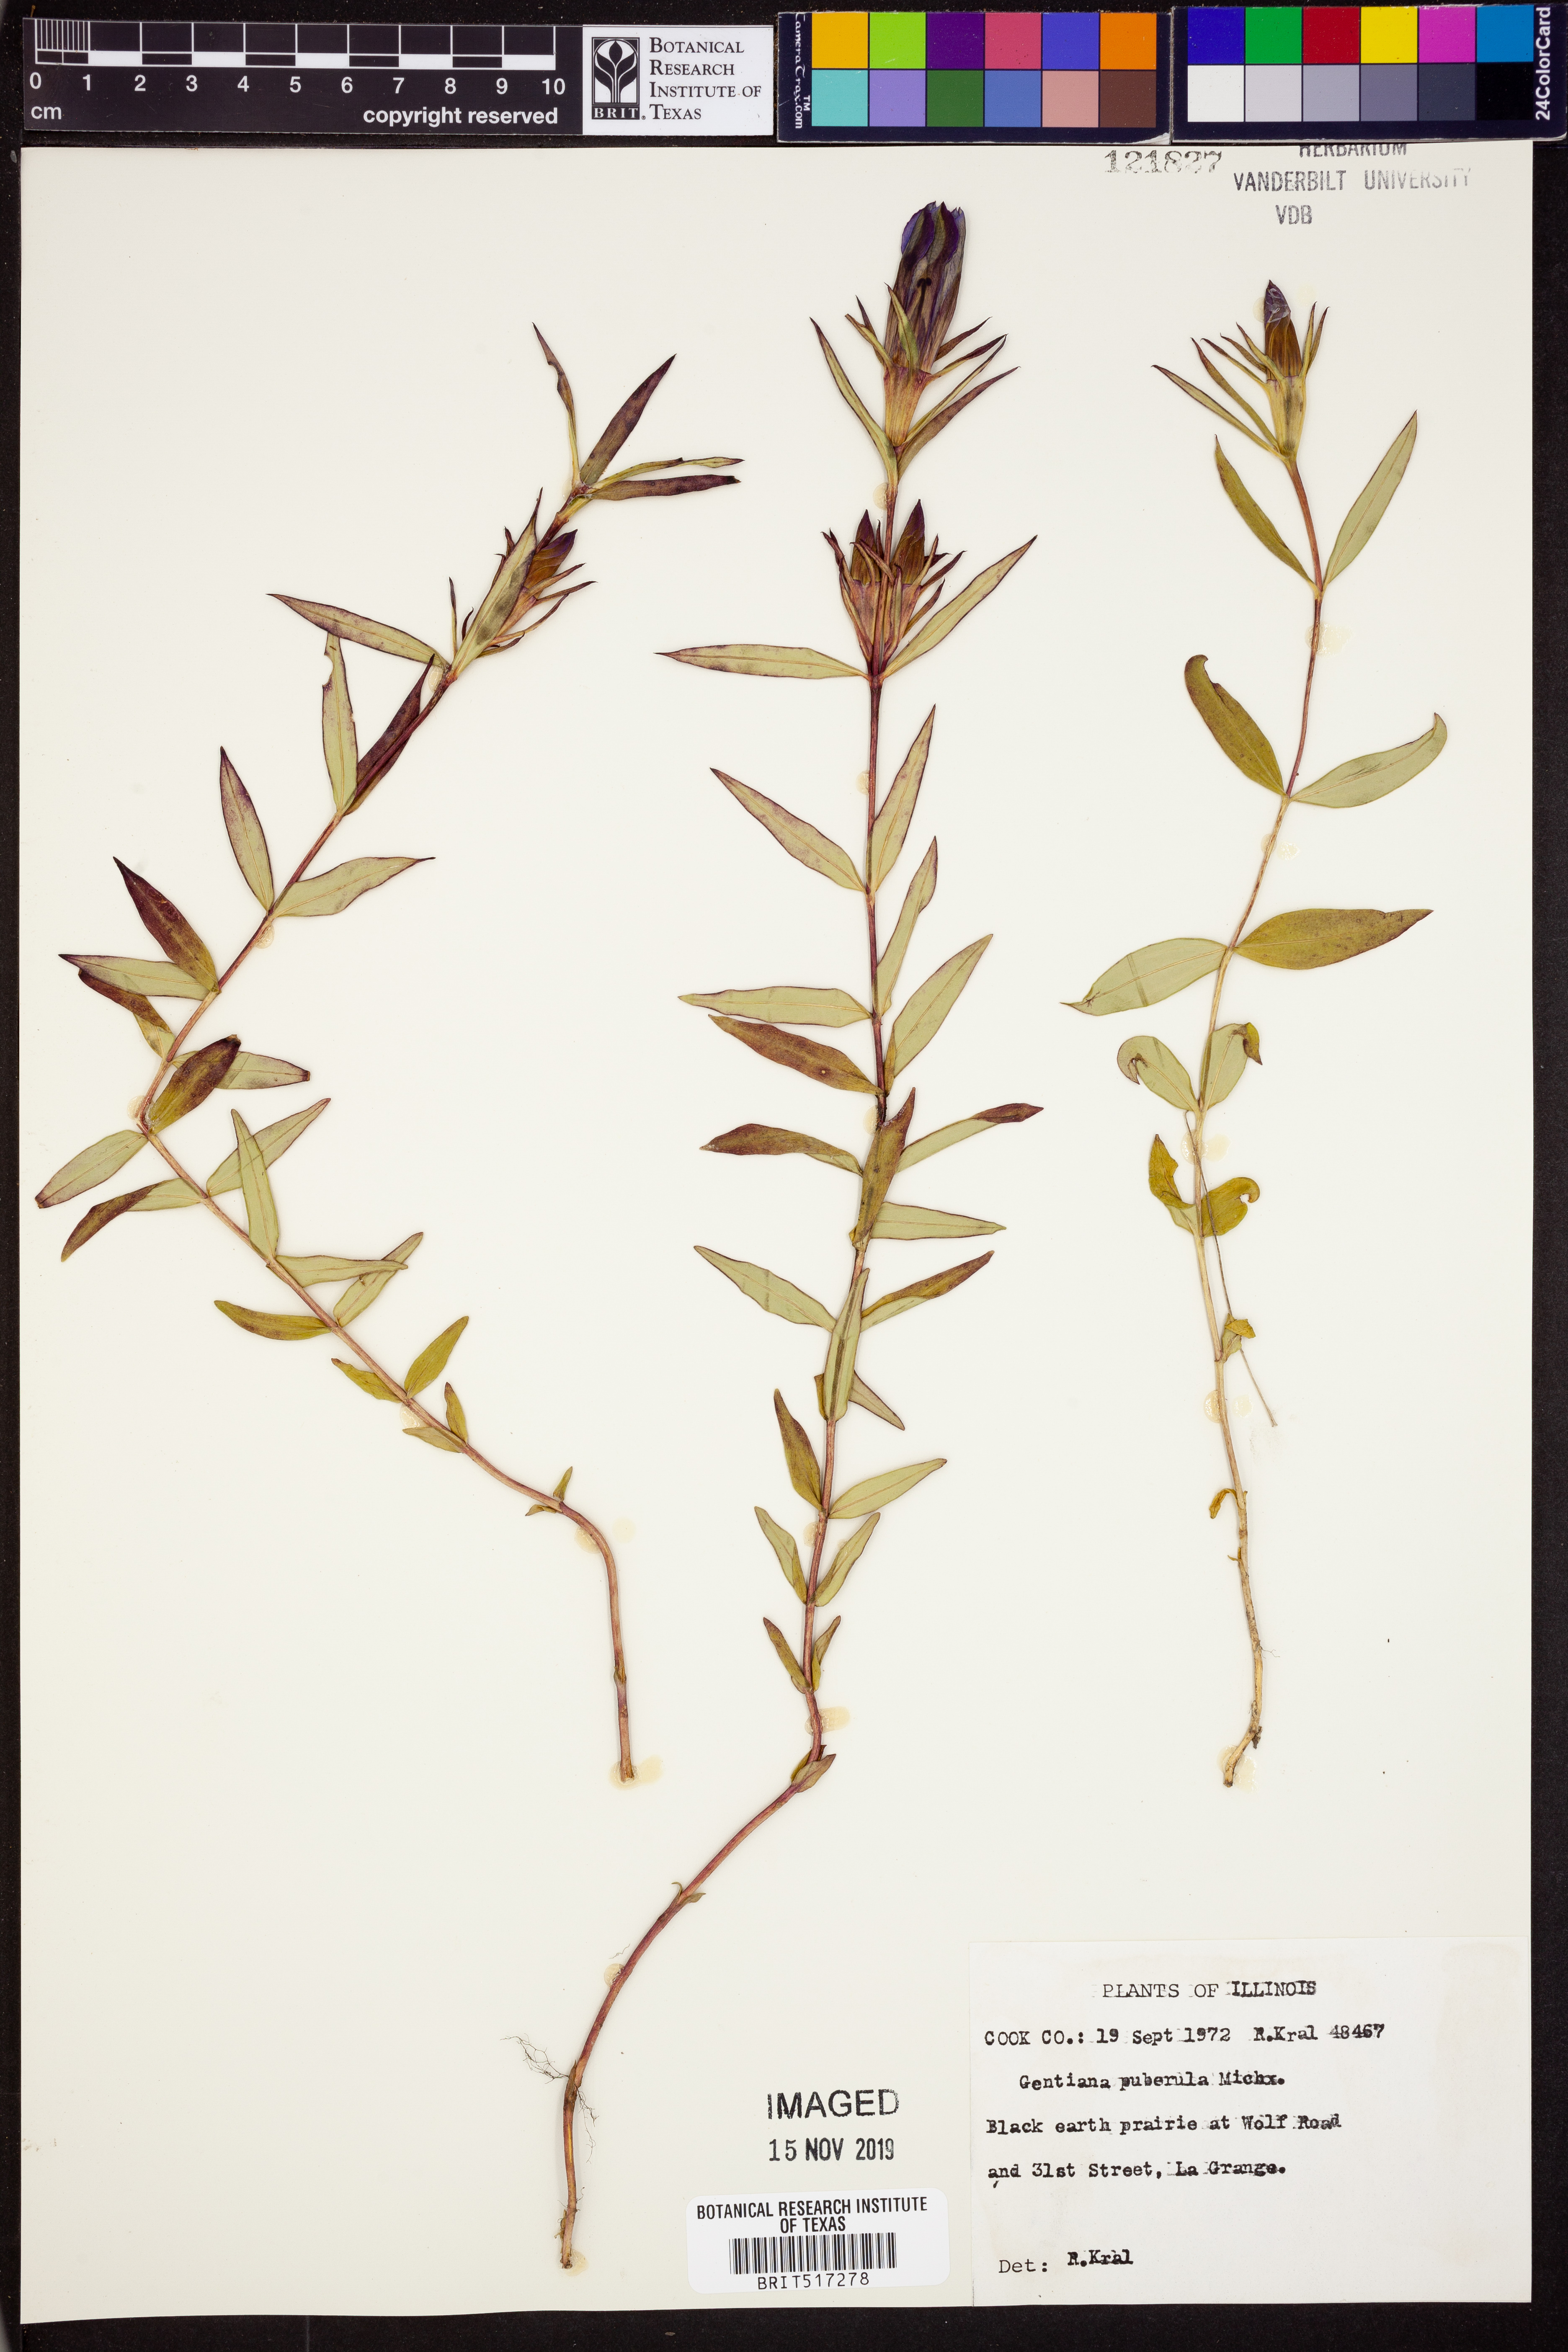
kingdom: Plantae
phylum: Tracheophyta
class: Magnoliopsida
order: Gentianales
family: Gentianaceae
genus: Gentiana
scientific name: Gentiana pubigera
